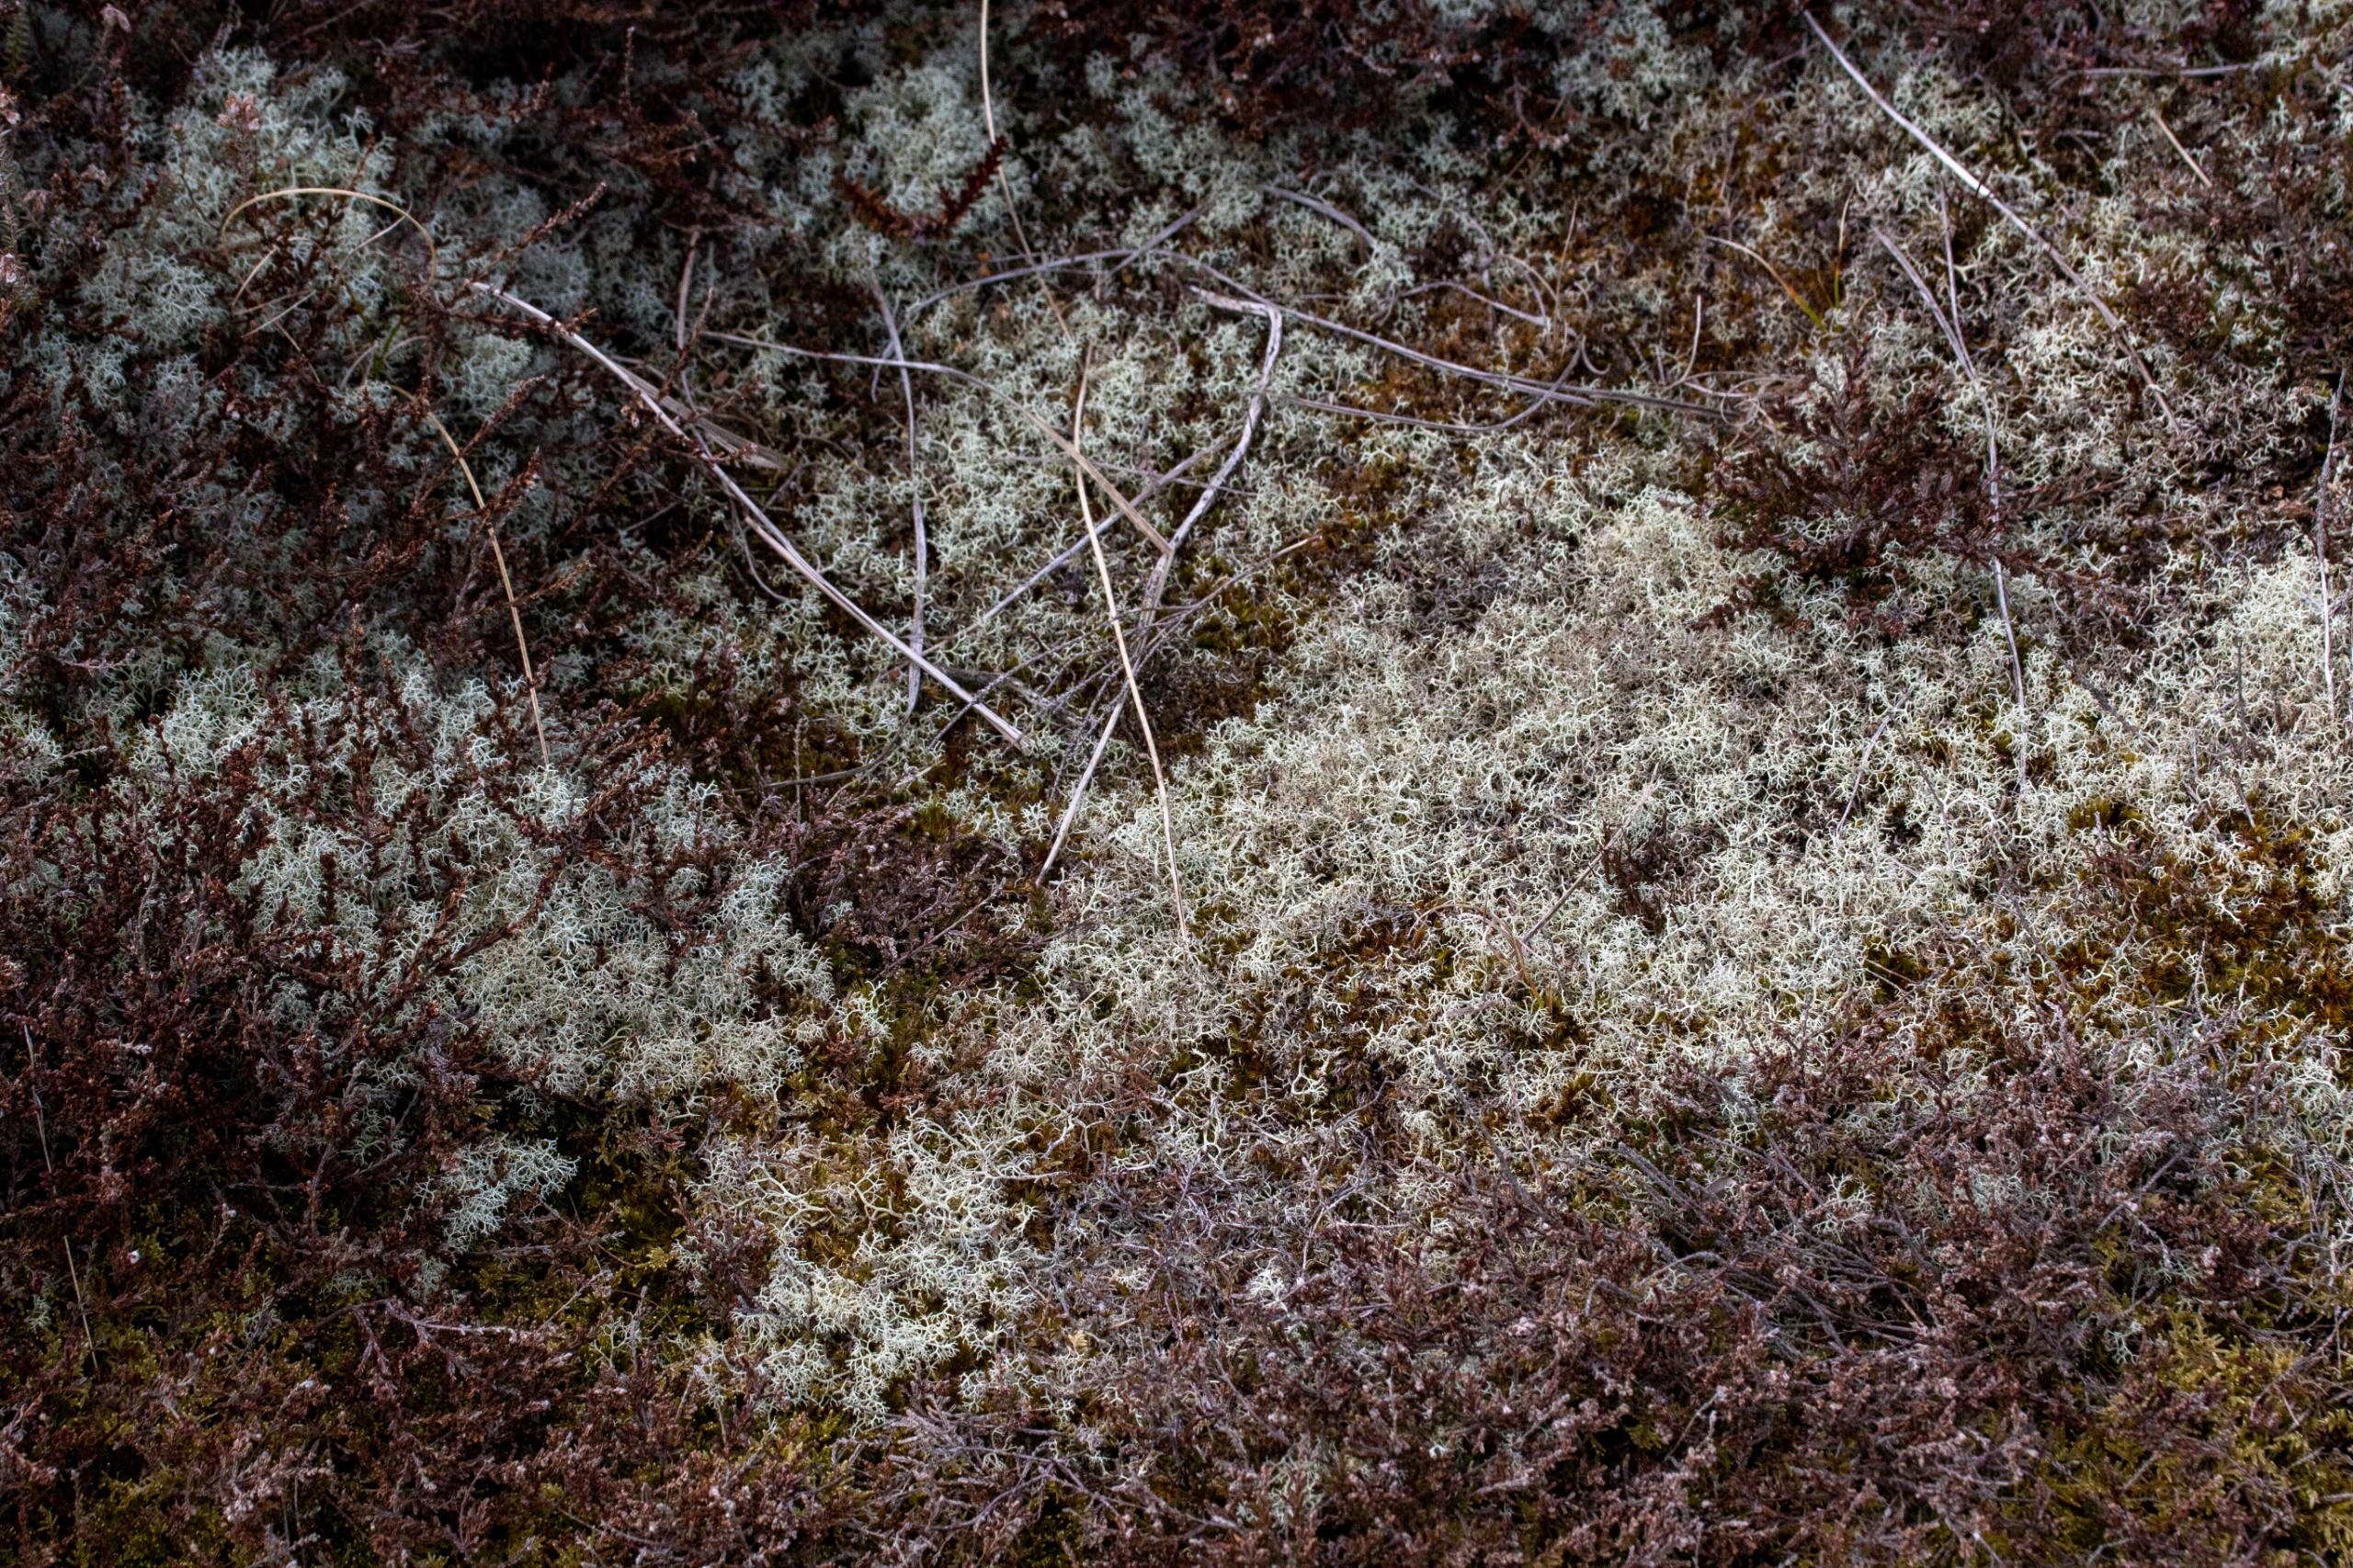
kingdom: Fungi
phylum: Ascomycota
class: Lecanoromycetes
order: Lecanorales
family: Cladoniaceae
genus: Cladonia
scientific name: Cladonia portentosa
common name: Hede-rensdyrlav
